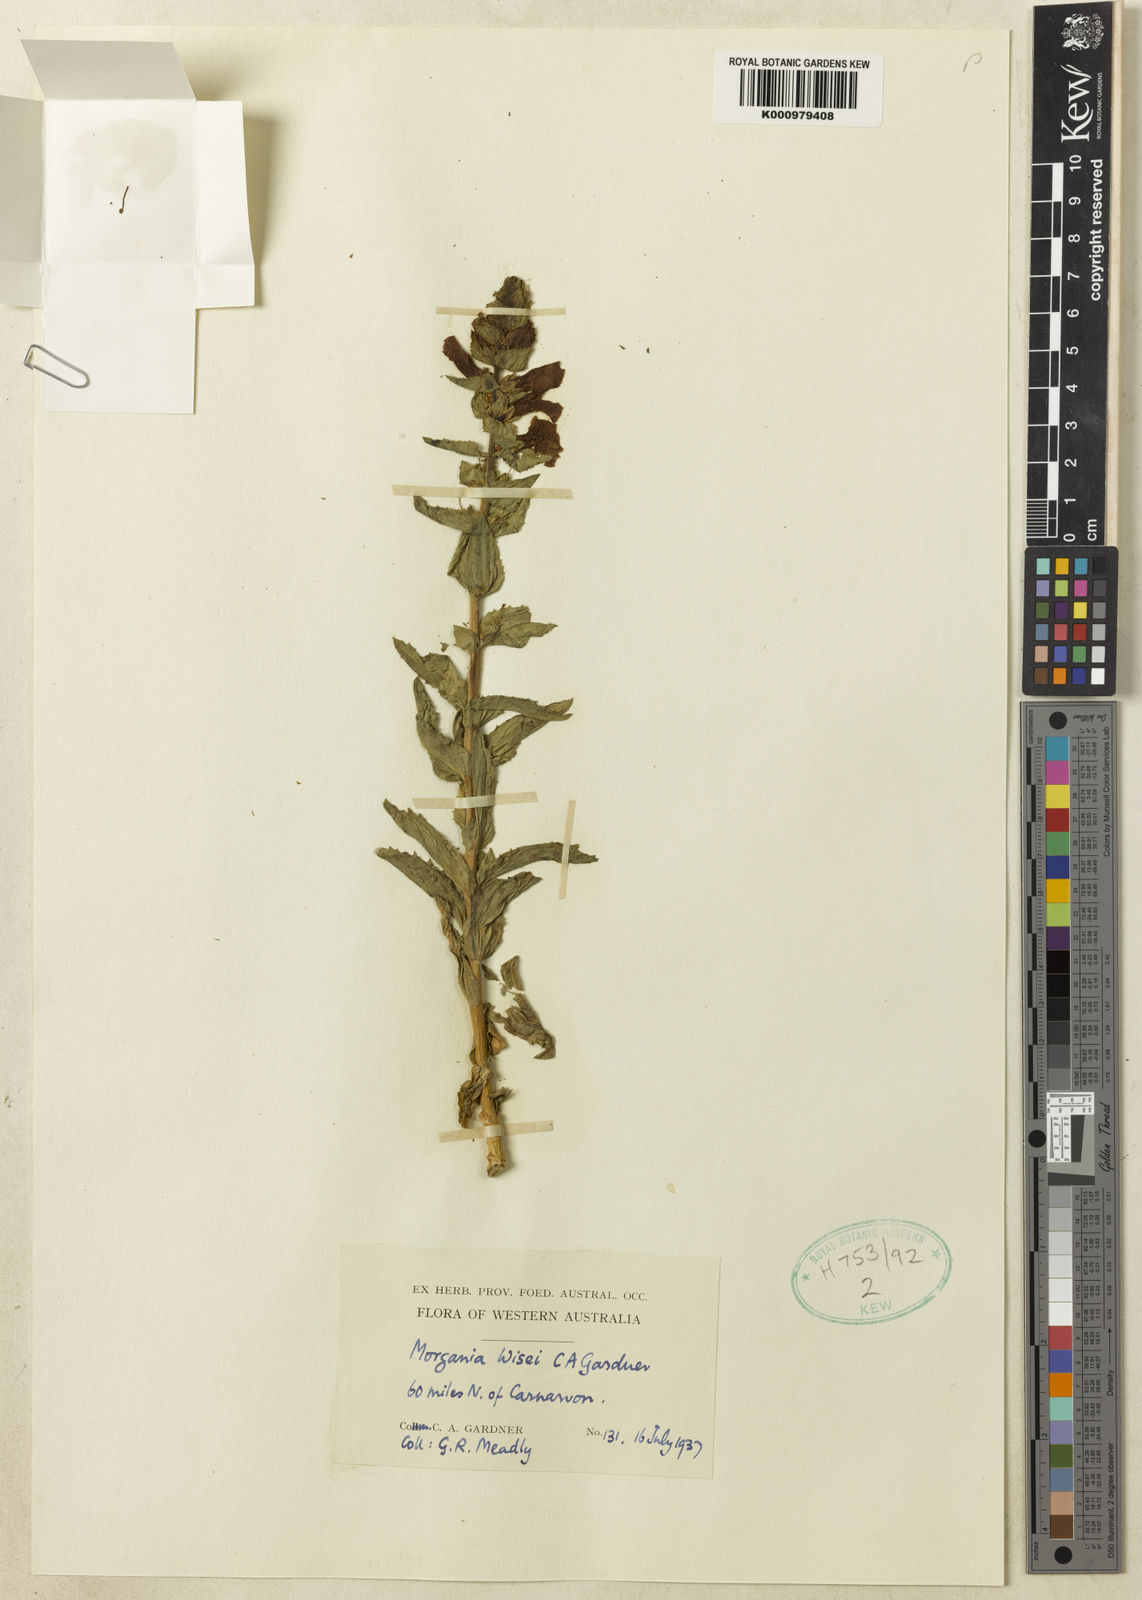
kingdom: Plantae
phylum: Tracheophyta
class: Magnoliopsida
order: Lamiales
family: Plantaginaceae
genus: Stemodia
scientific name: Stemodia
